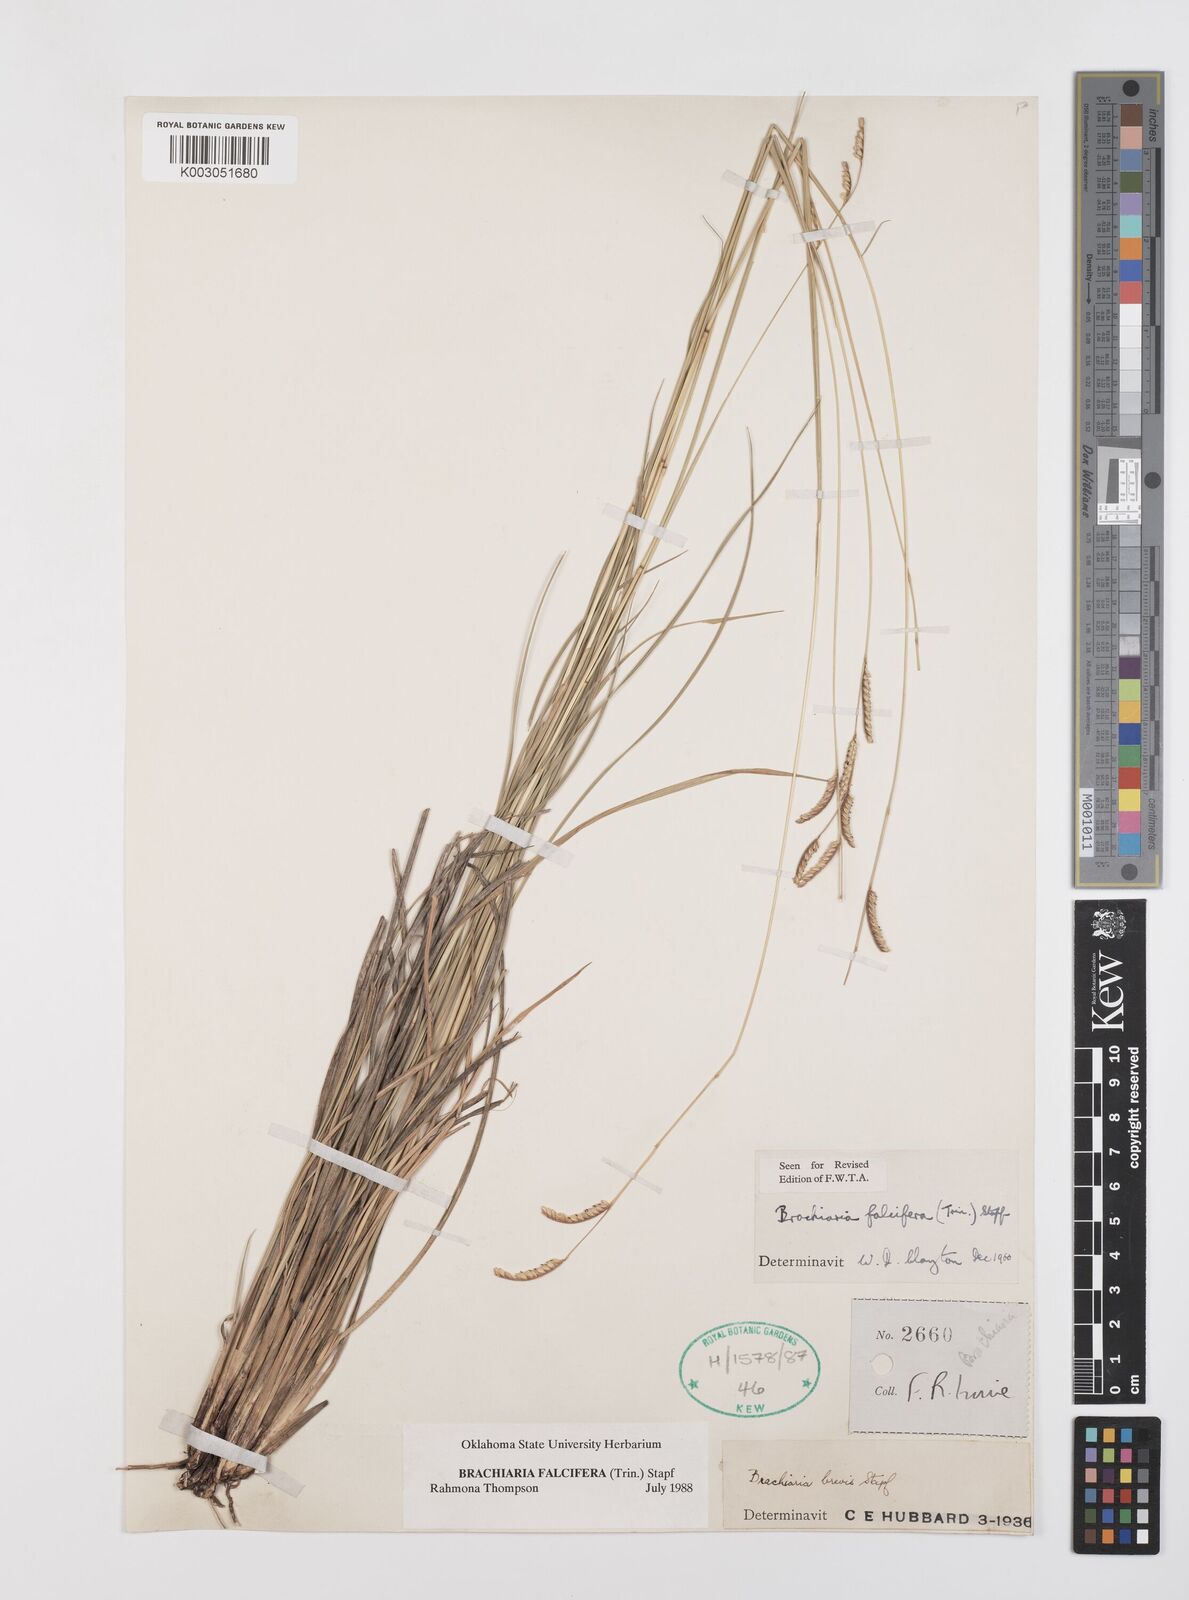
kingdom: Plantae
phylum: Tracheophyta
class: Liliopsida
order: Poales
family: Poaceae
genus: Urochloa
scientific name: Urochloa falcifera
